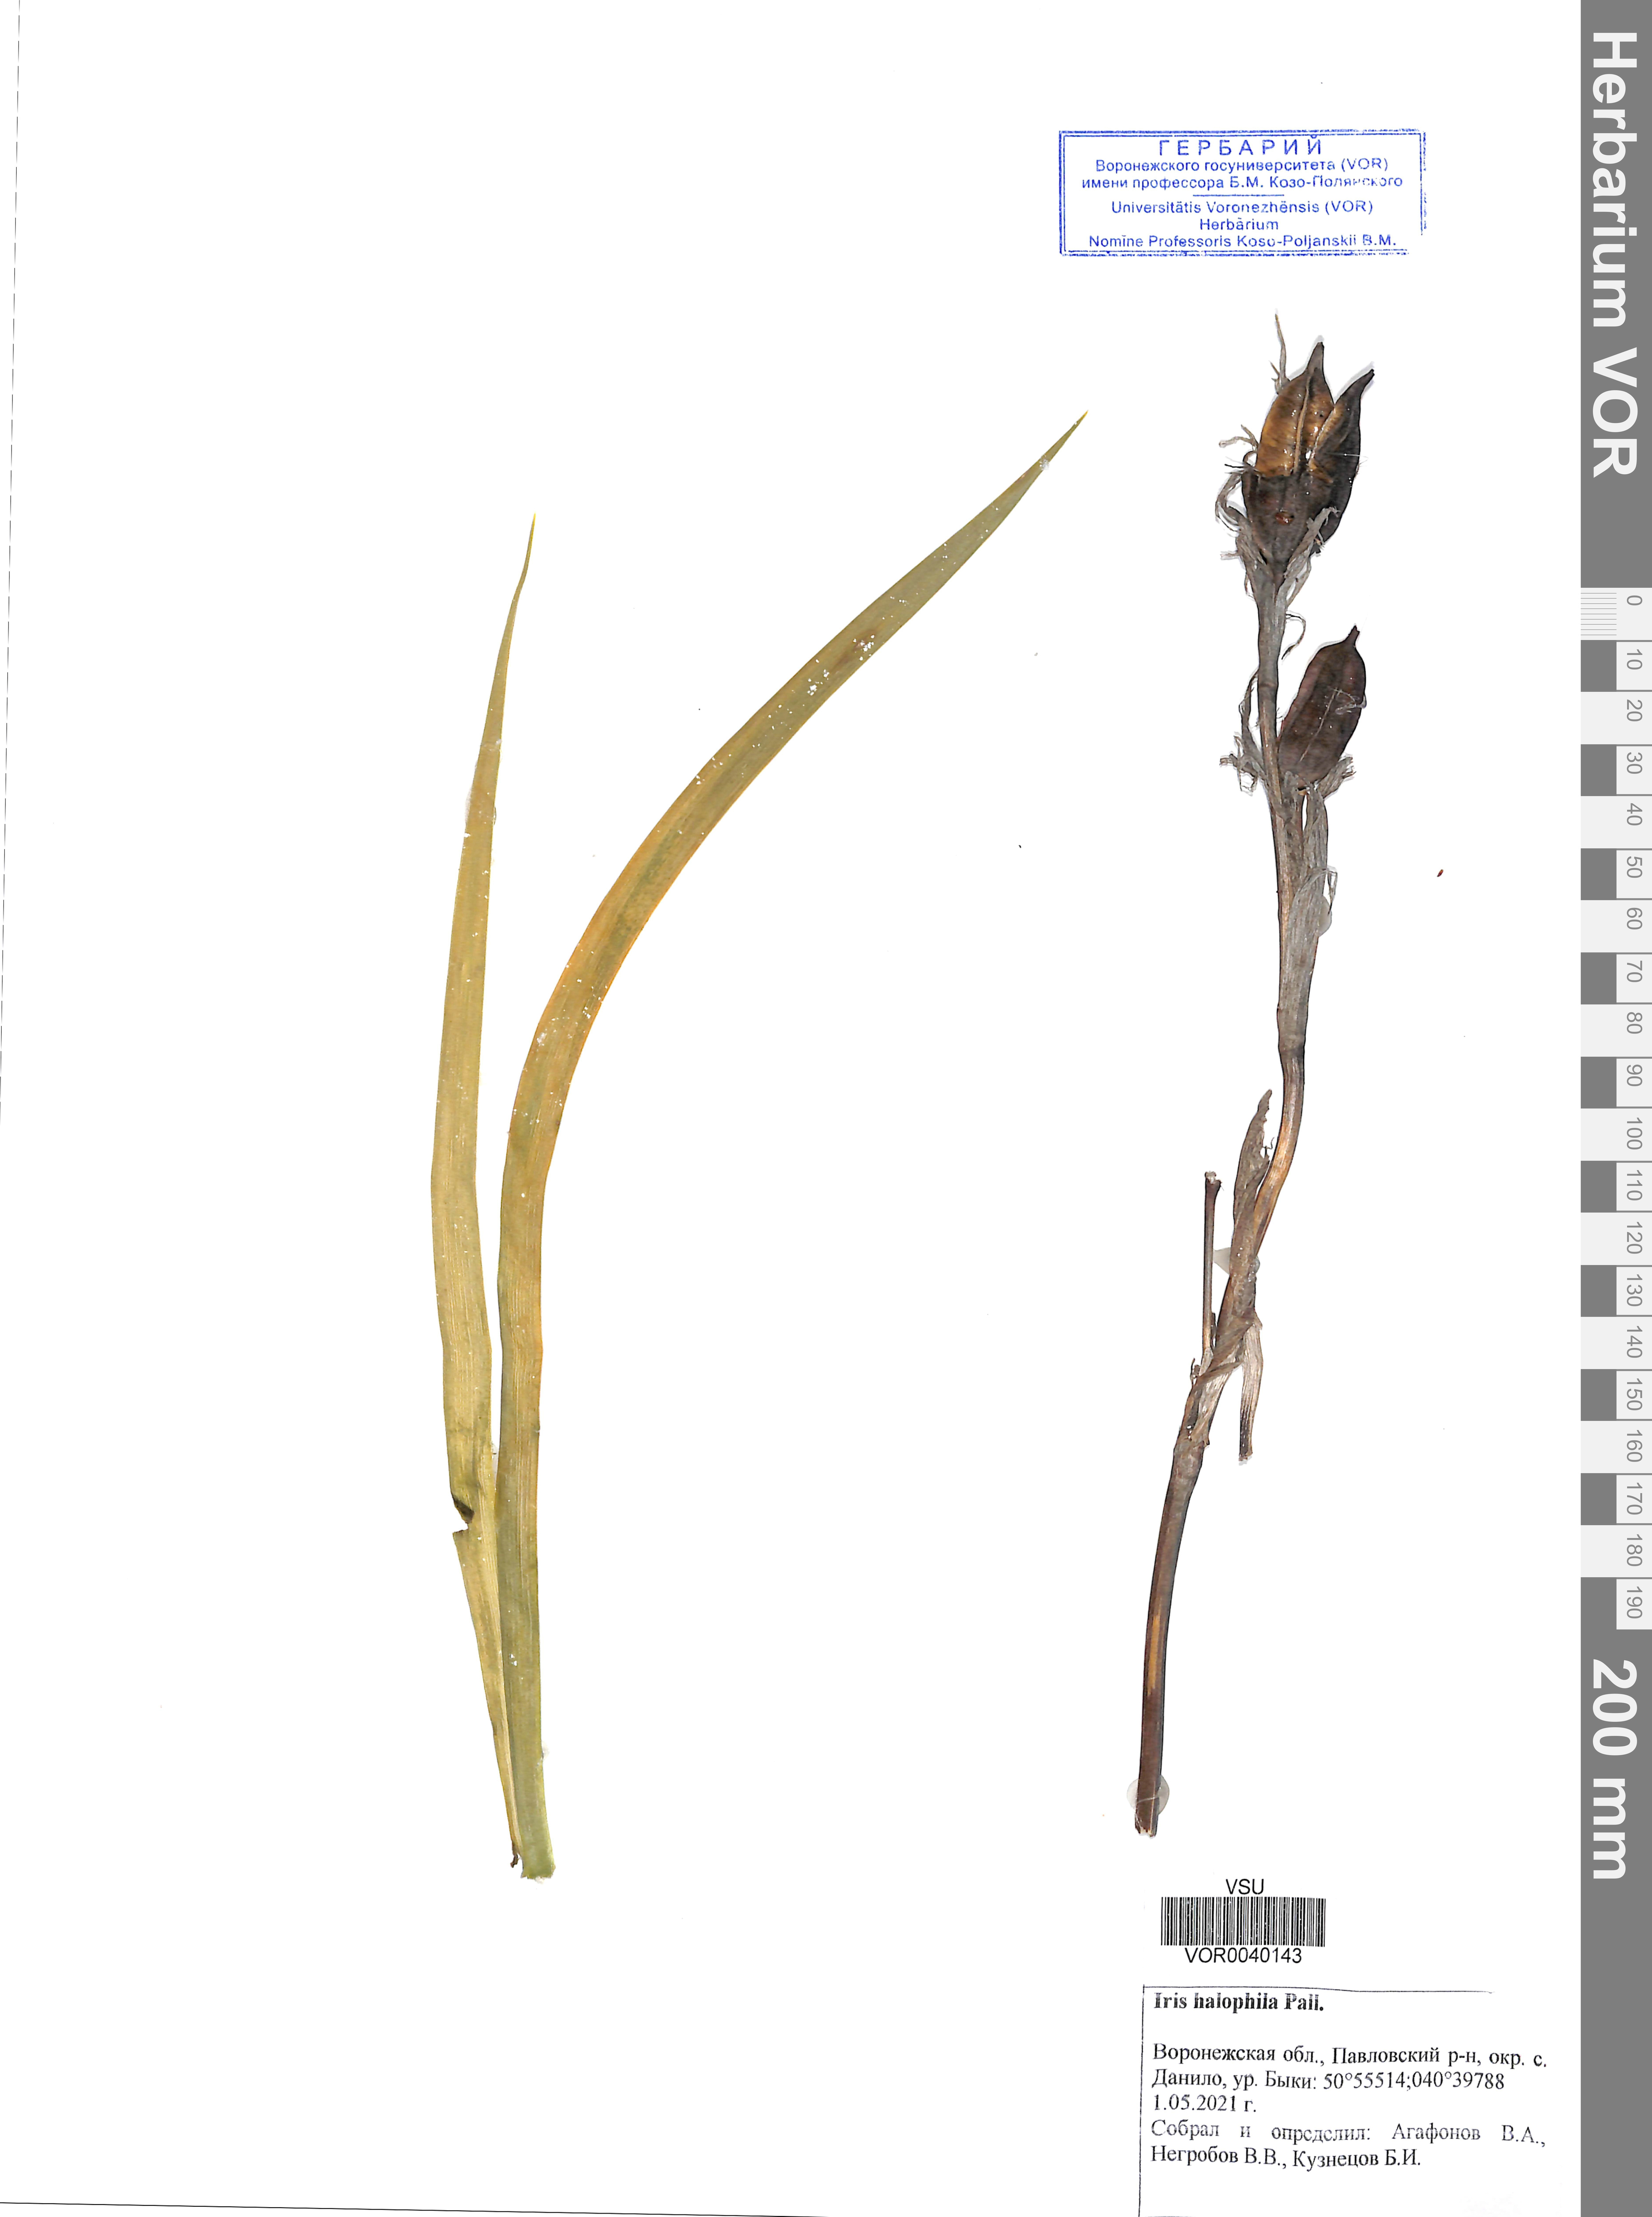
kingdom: Plantae
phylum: Tracheophyta
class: Liliopsida
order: Asparagales
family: Iridaceae
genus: Iris
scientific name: Iris halophila
